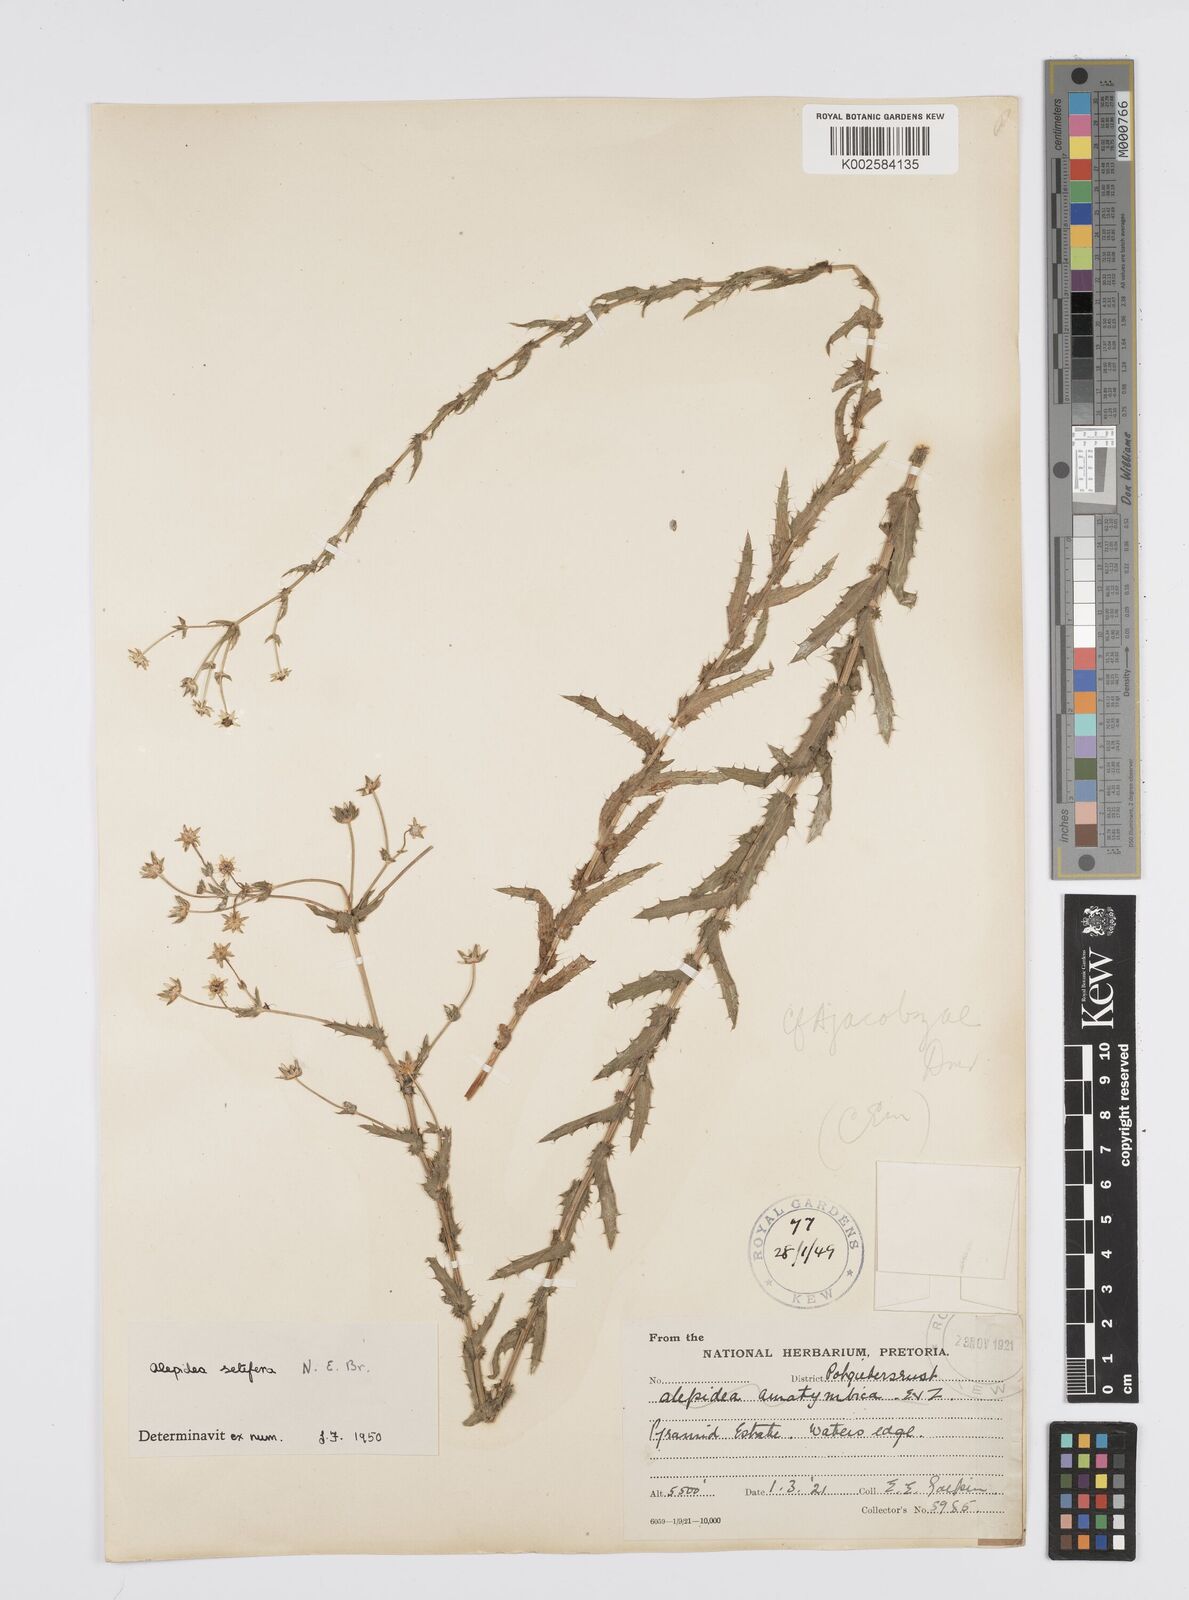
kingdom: Plantae
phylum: Tracheophyta
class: Magnoliopsida
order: Apiales
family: Apiaceae
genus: Alepidea
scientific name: Alepidea setifera
